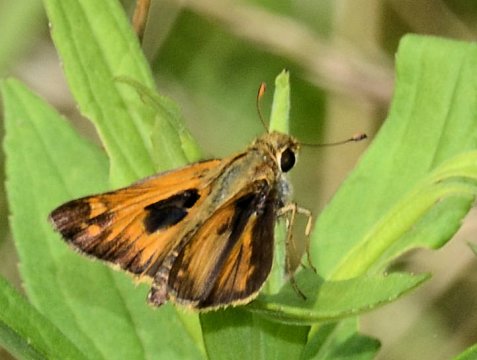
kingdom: Animalia
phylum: Arthropoda
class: Insecta
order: Lepidoptera
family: Hesperiidae
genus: Atalopedes
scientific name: Atalopedes campestris
